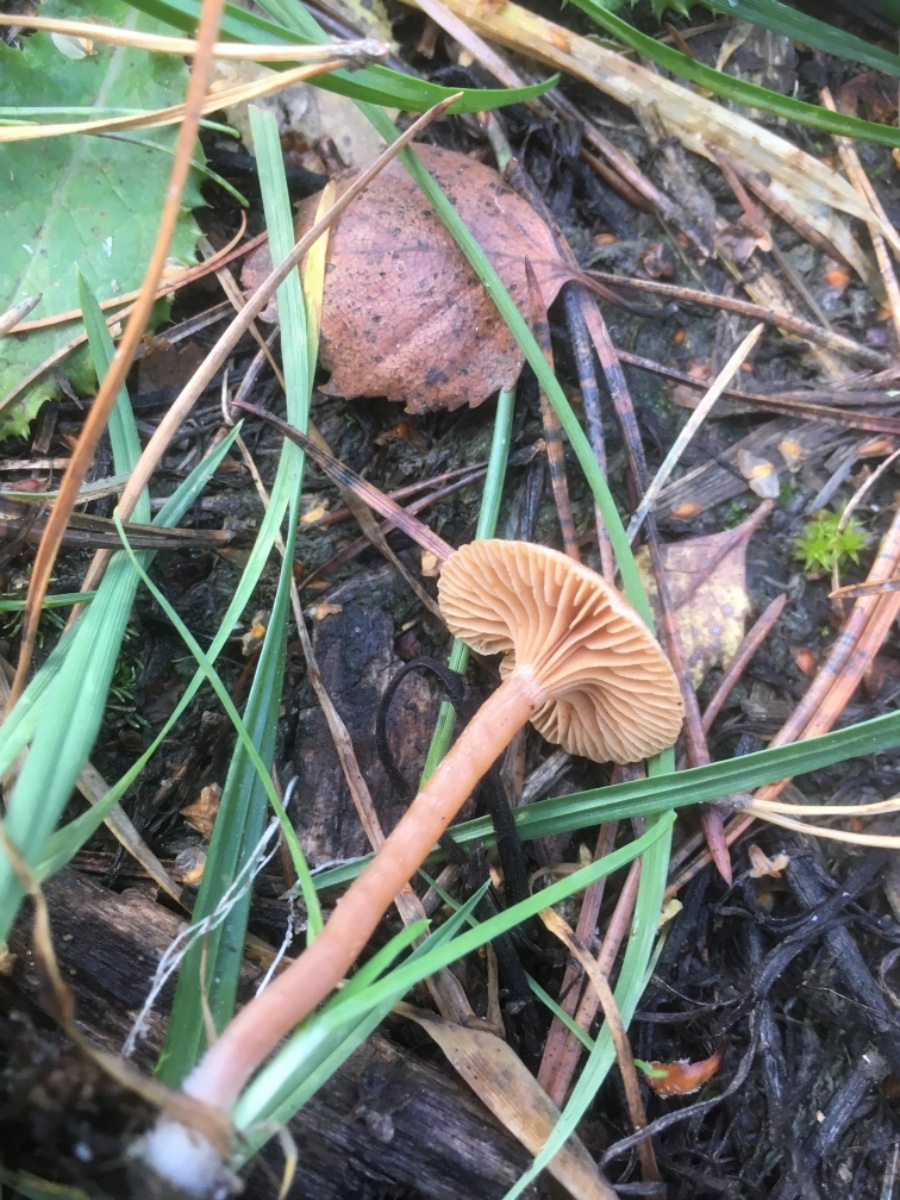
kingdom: Fungi
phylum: Basidiomycota
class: Agaricomycetes
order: Agaricales
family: Tubariaceae
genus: Tubaria
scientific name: Tubaria furfuracea
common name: kliddet fnughat
